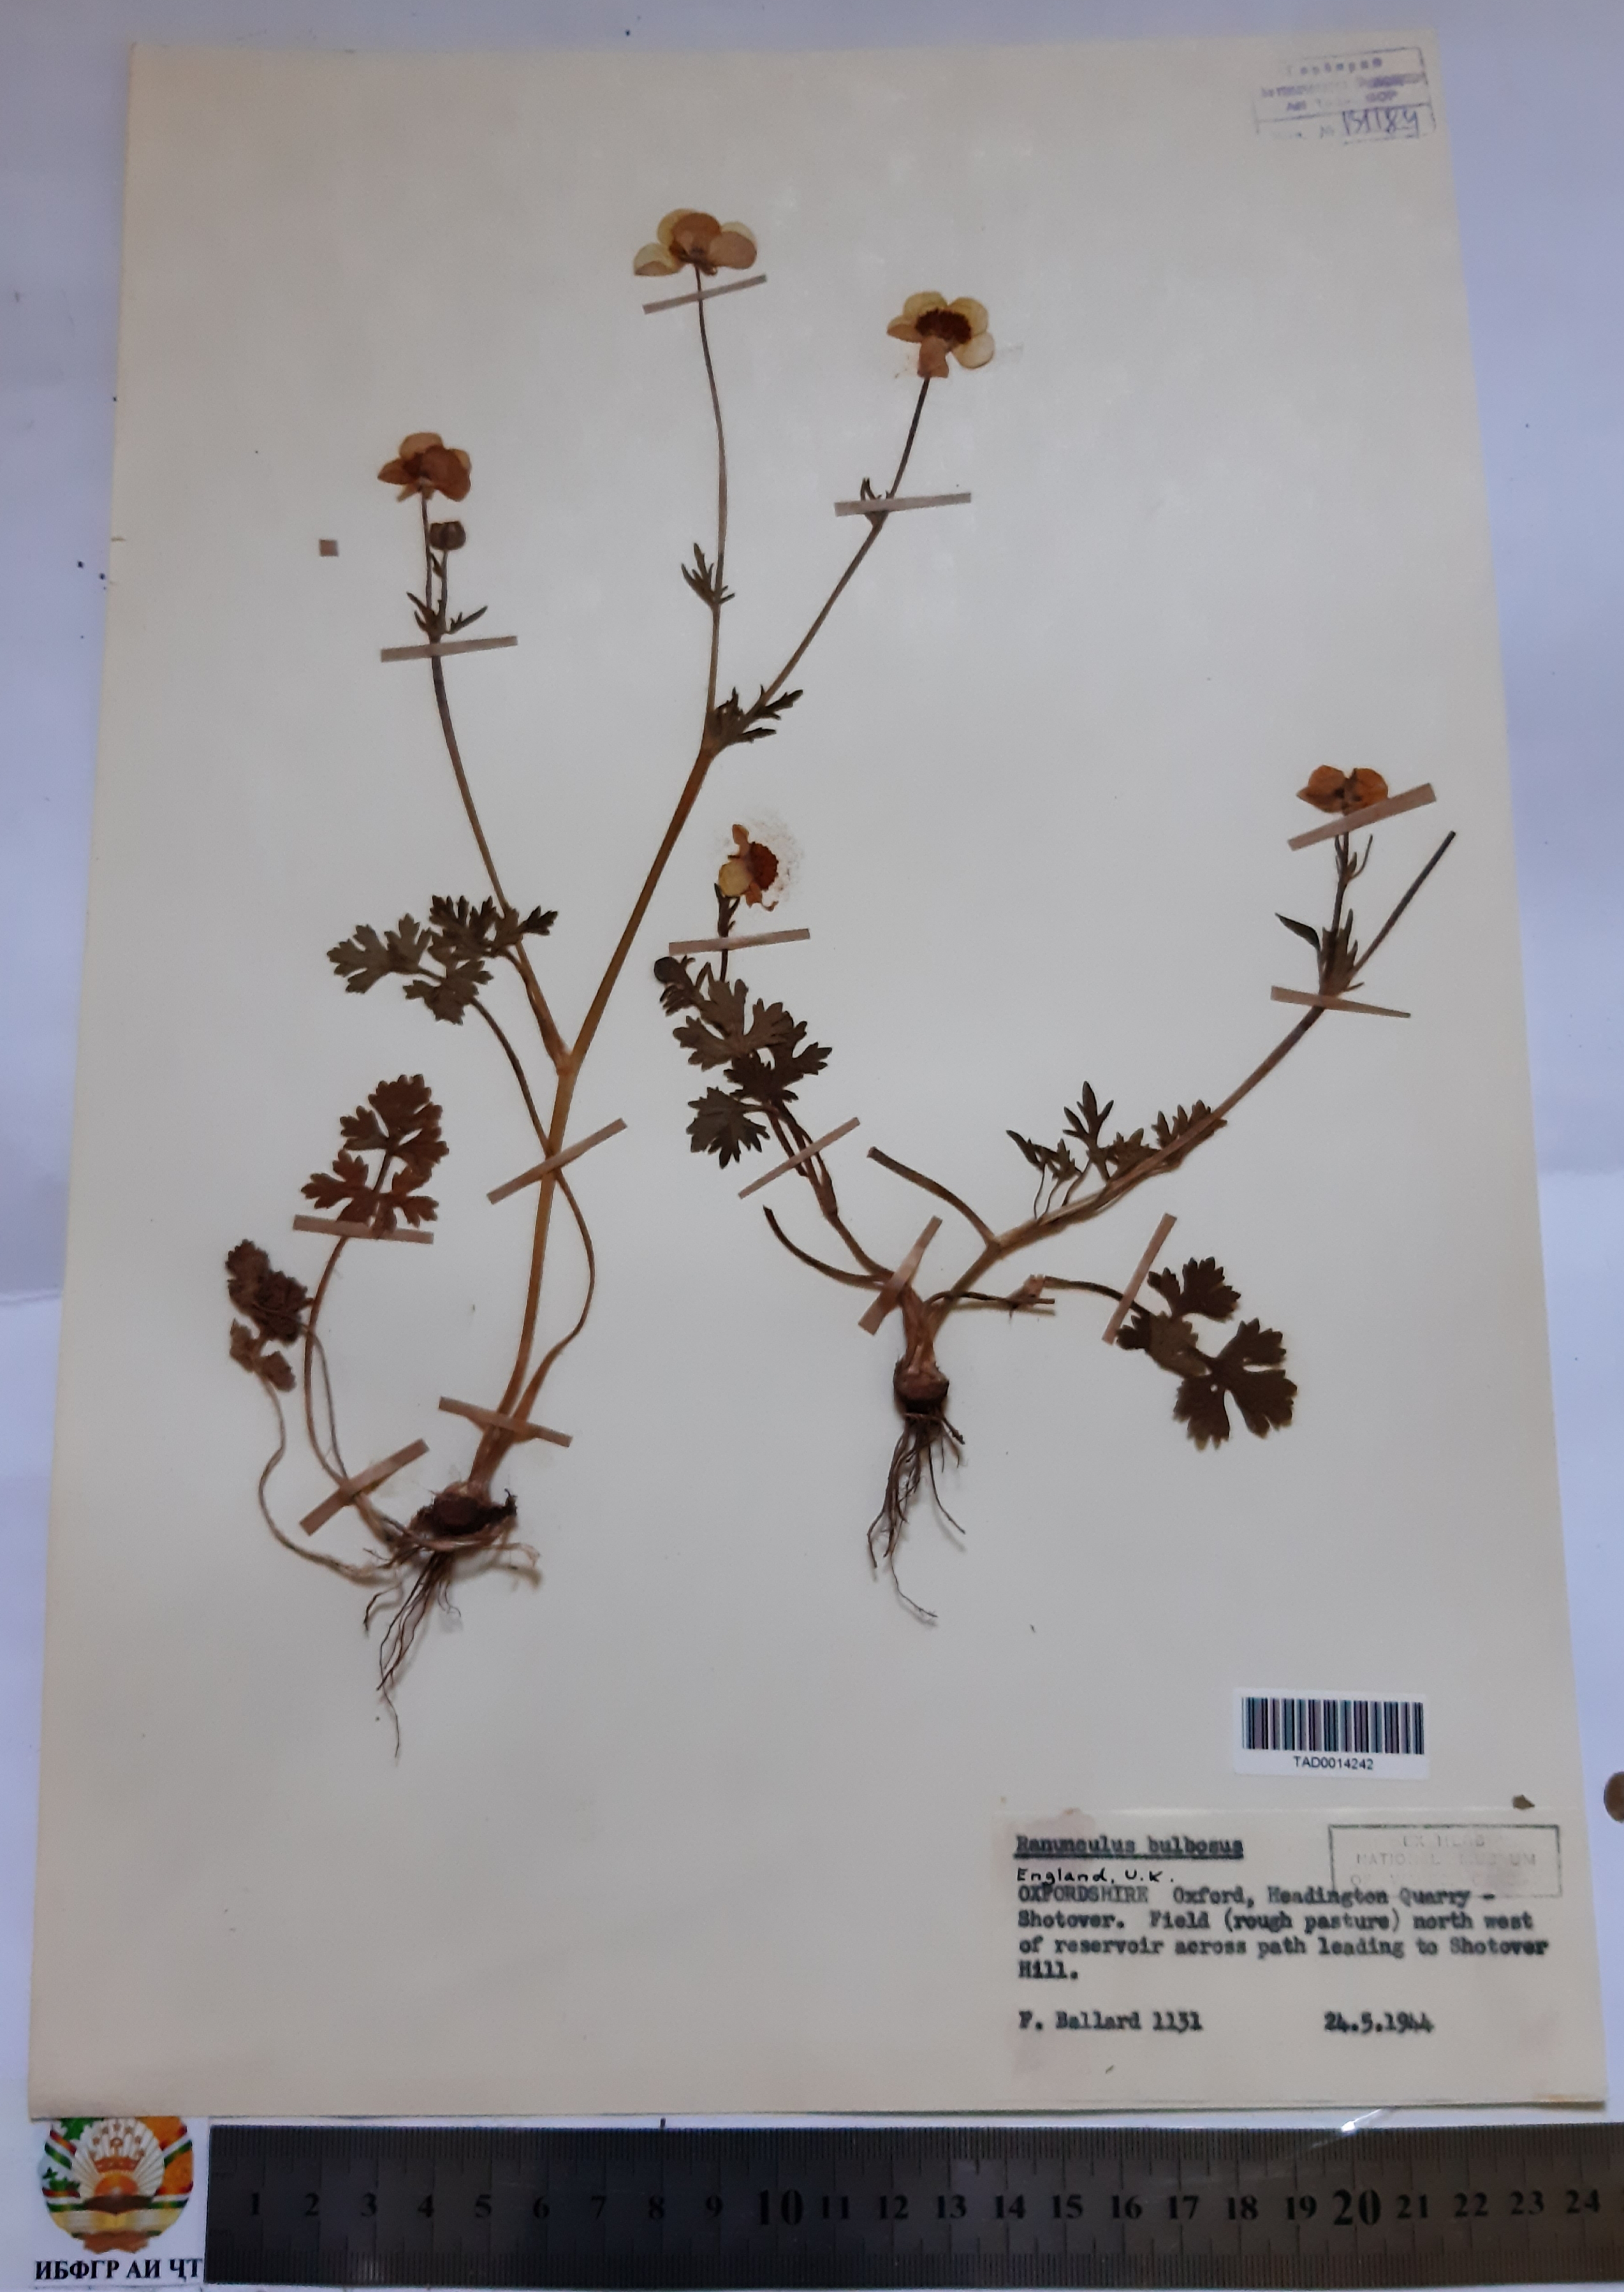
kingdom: Plantae
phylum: Tracheophyta
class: Magnoliopsida
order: Ranunculales
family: Ranunculaceae
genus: Ranunculus
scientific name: Ranunculus bulbosus
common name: Bulbous buttercup
